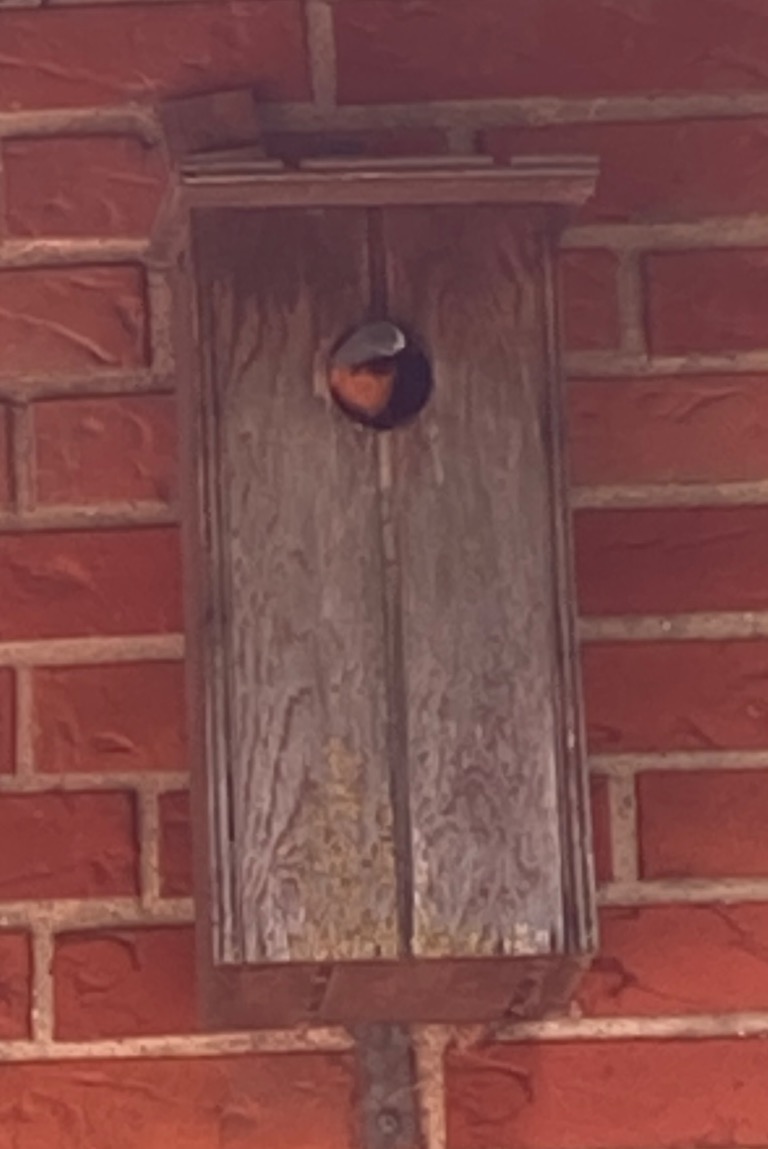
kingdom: Animalia
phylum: Chordata
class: Aves
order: Passeriformes
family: Muscicapidae
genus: Phoenicurus
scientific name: Phoenicurus phoenicurus
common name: Rødstjert
